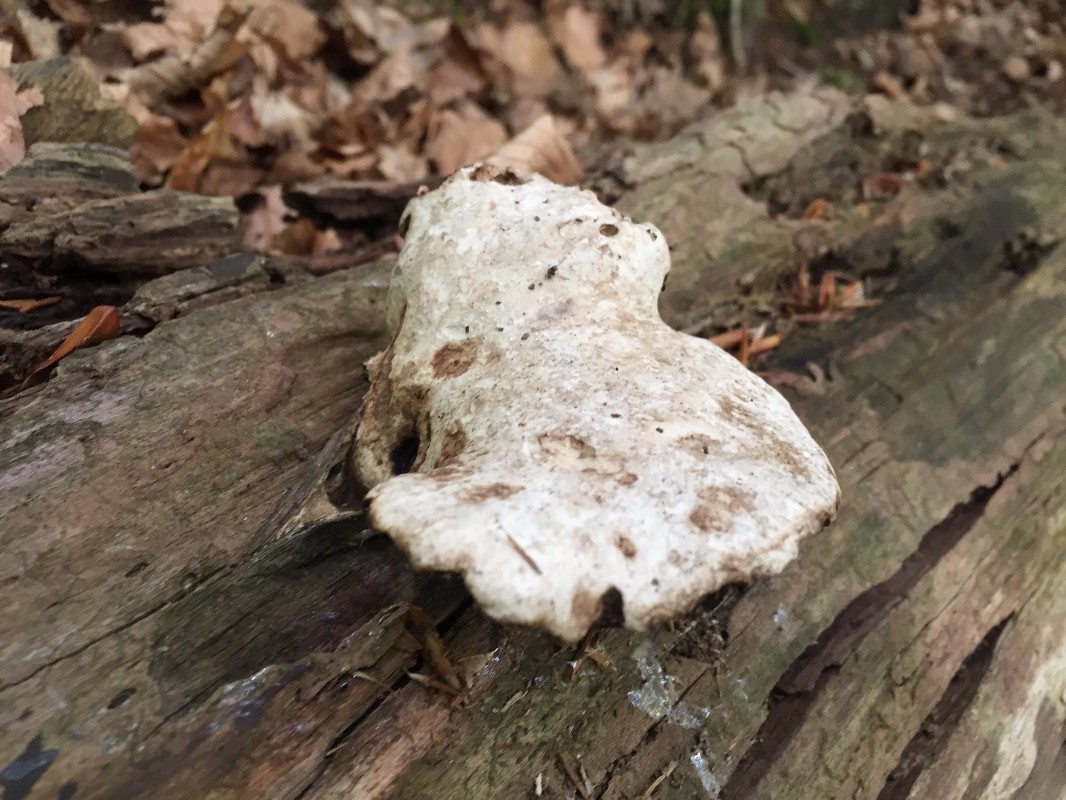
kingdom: Fungi
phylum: Basidiomycota
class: Agaricomycetes
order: Polyporales
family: Fomitopsidaceae
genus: Fomitopsis
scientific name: Fomitopsis betulina
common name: birkeporesvamp
